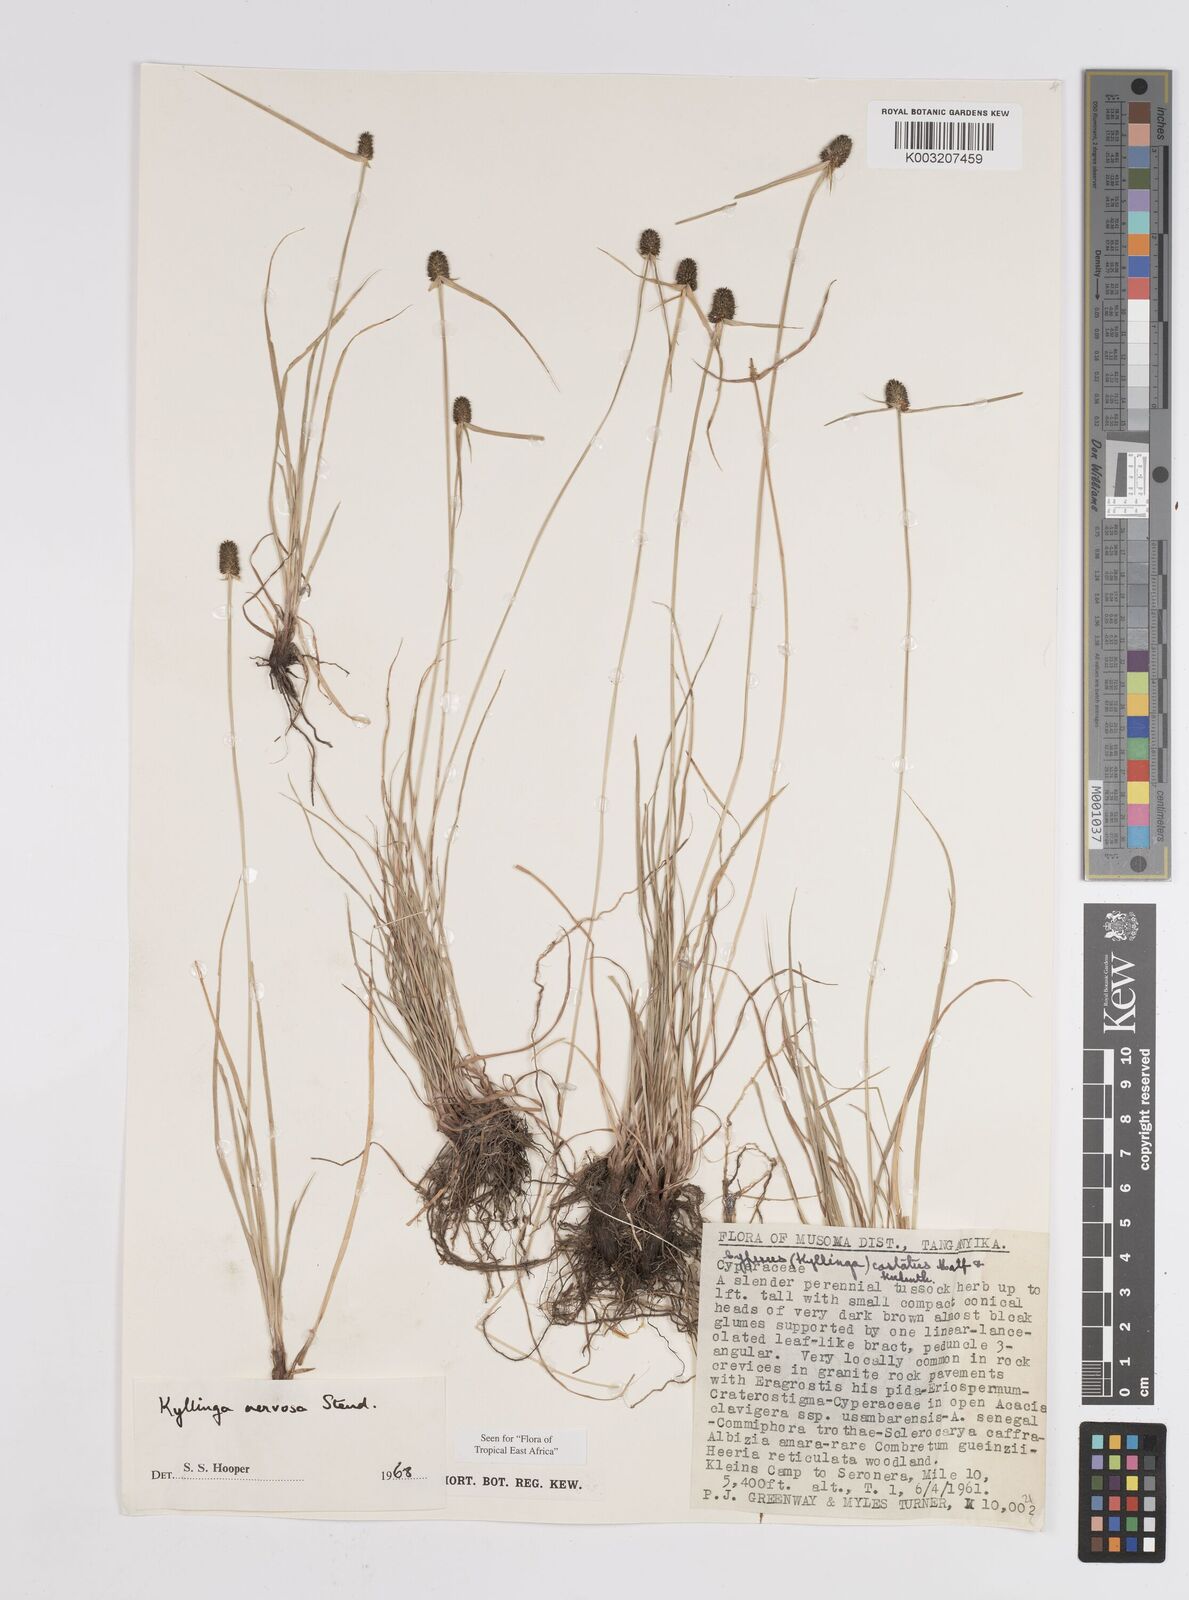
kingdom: Plantae
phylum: Tracheophyta
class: Liliopsida
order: Poales
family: Cyperaceae
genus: Cyperus
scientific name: Cyperus
